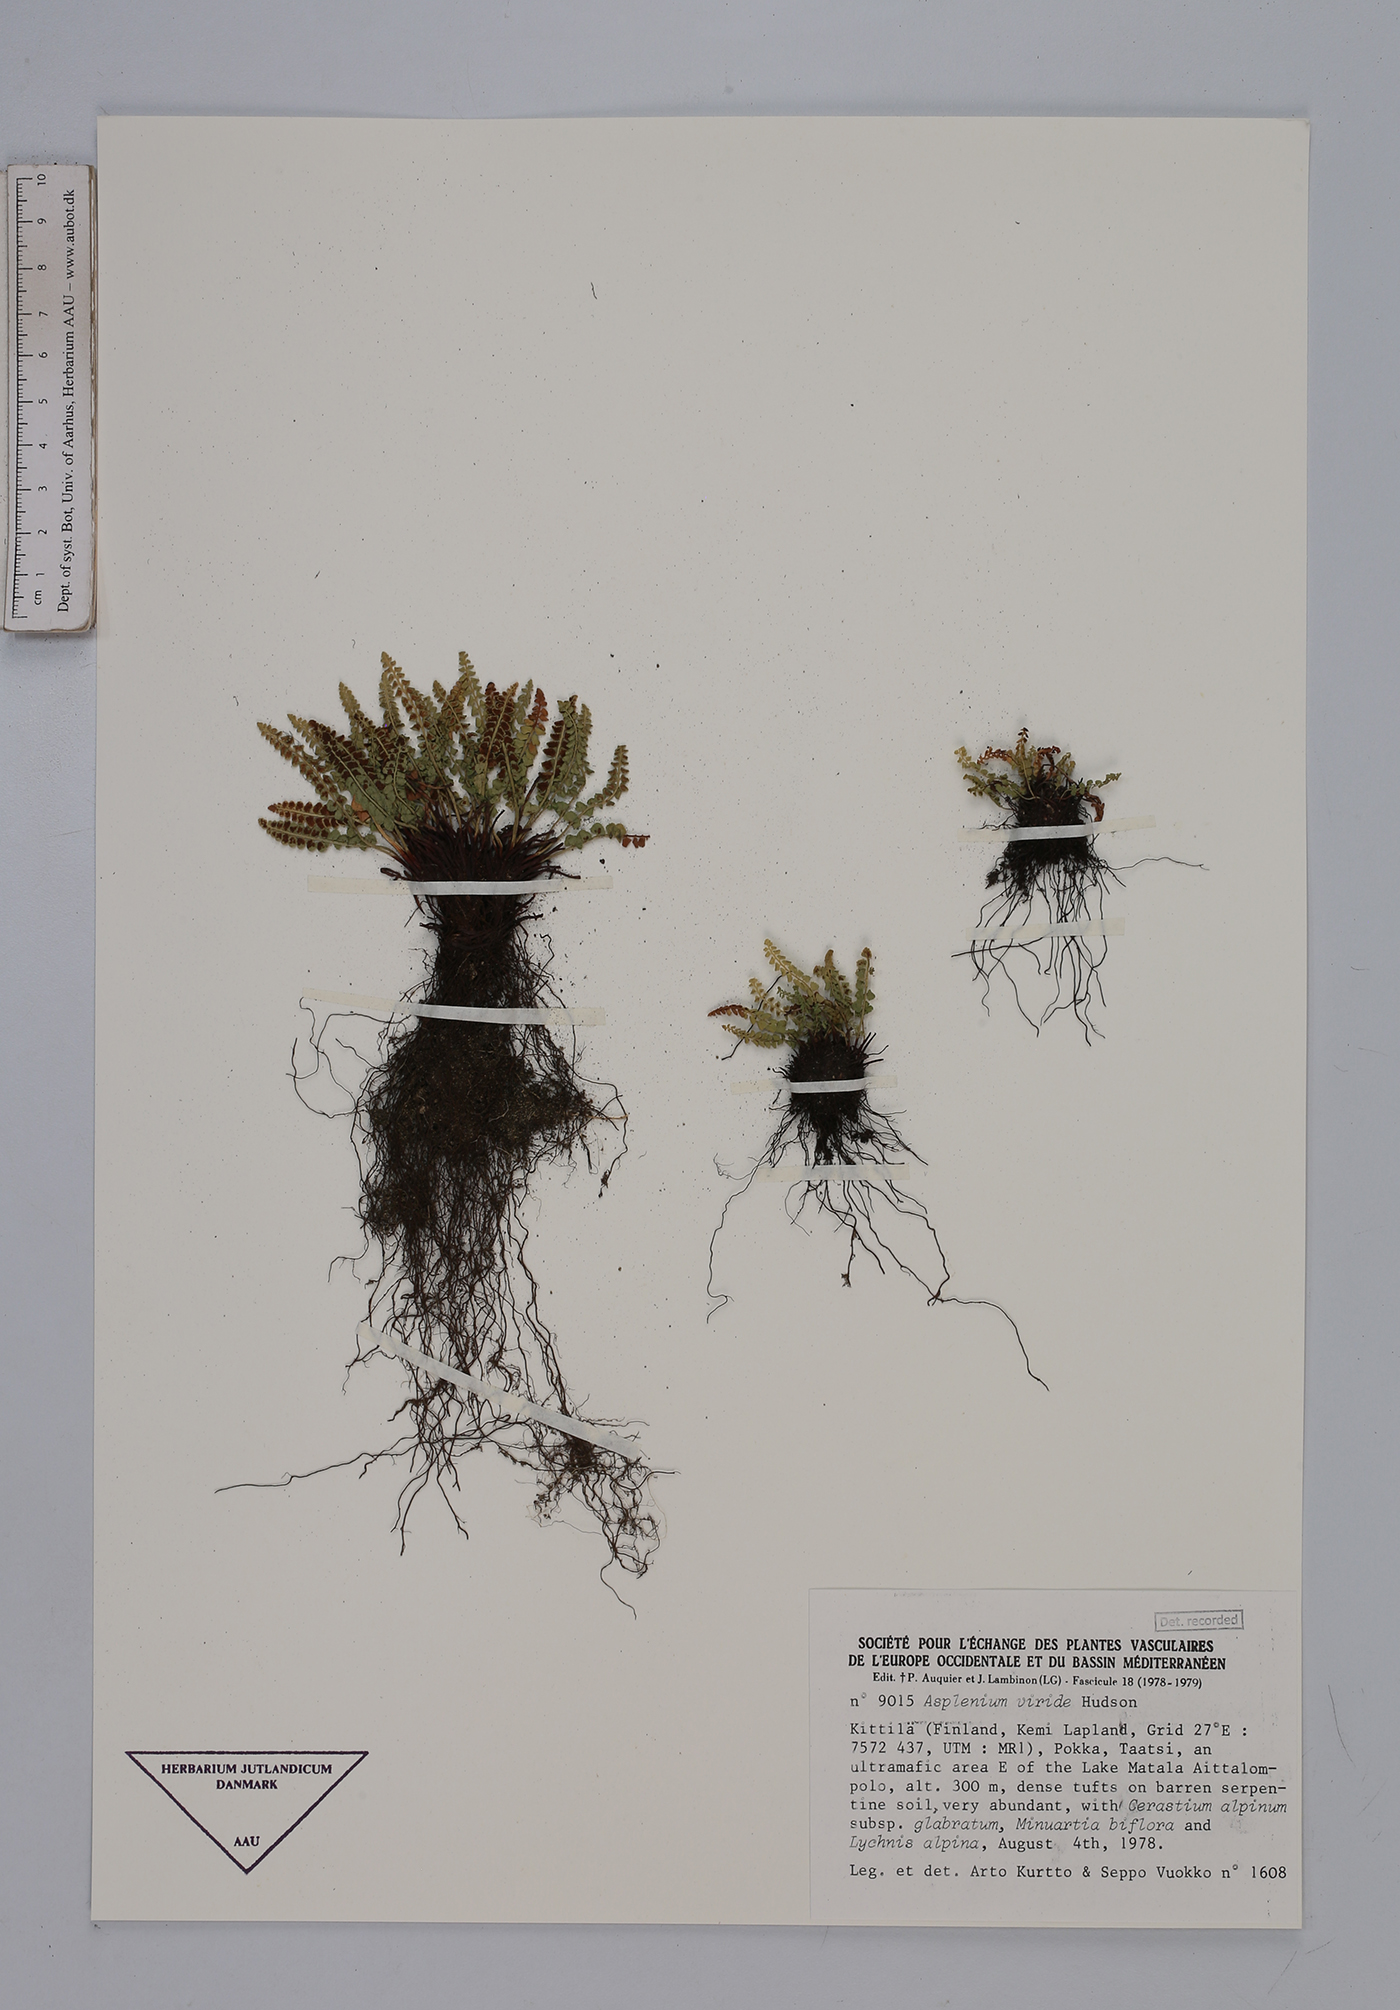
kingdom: Plantae
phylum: Tracheophyta
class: Polypodiopsida
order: Polypodiales
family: Aspleniaceae
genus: Asplenium
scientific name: Asplenium viride
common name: Green spleenwort
